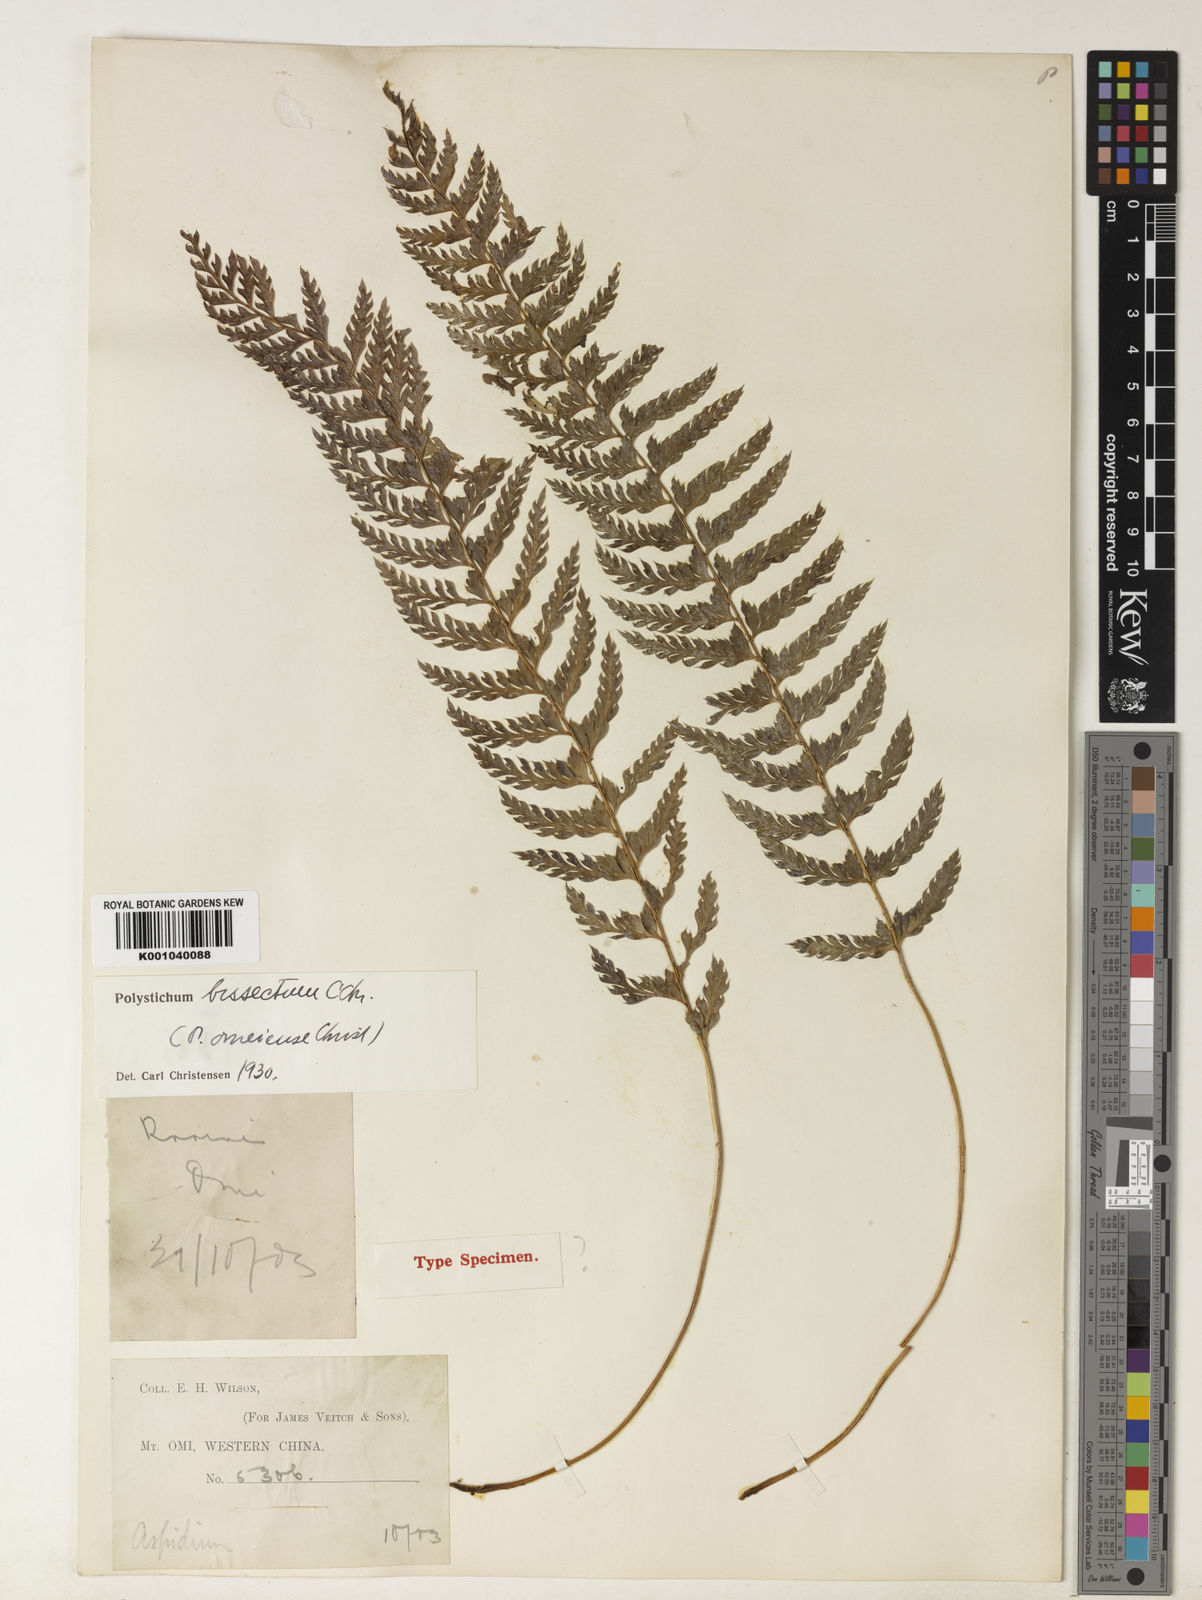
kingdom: Plantae
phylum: Tracheophyta
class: Polypodiopsida
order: Polypodiales
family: Dryopteridaceae
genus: Polystichum
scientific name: Polystichum bissectum
